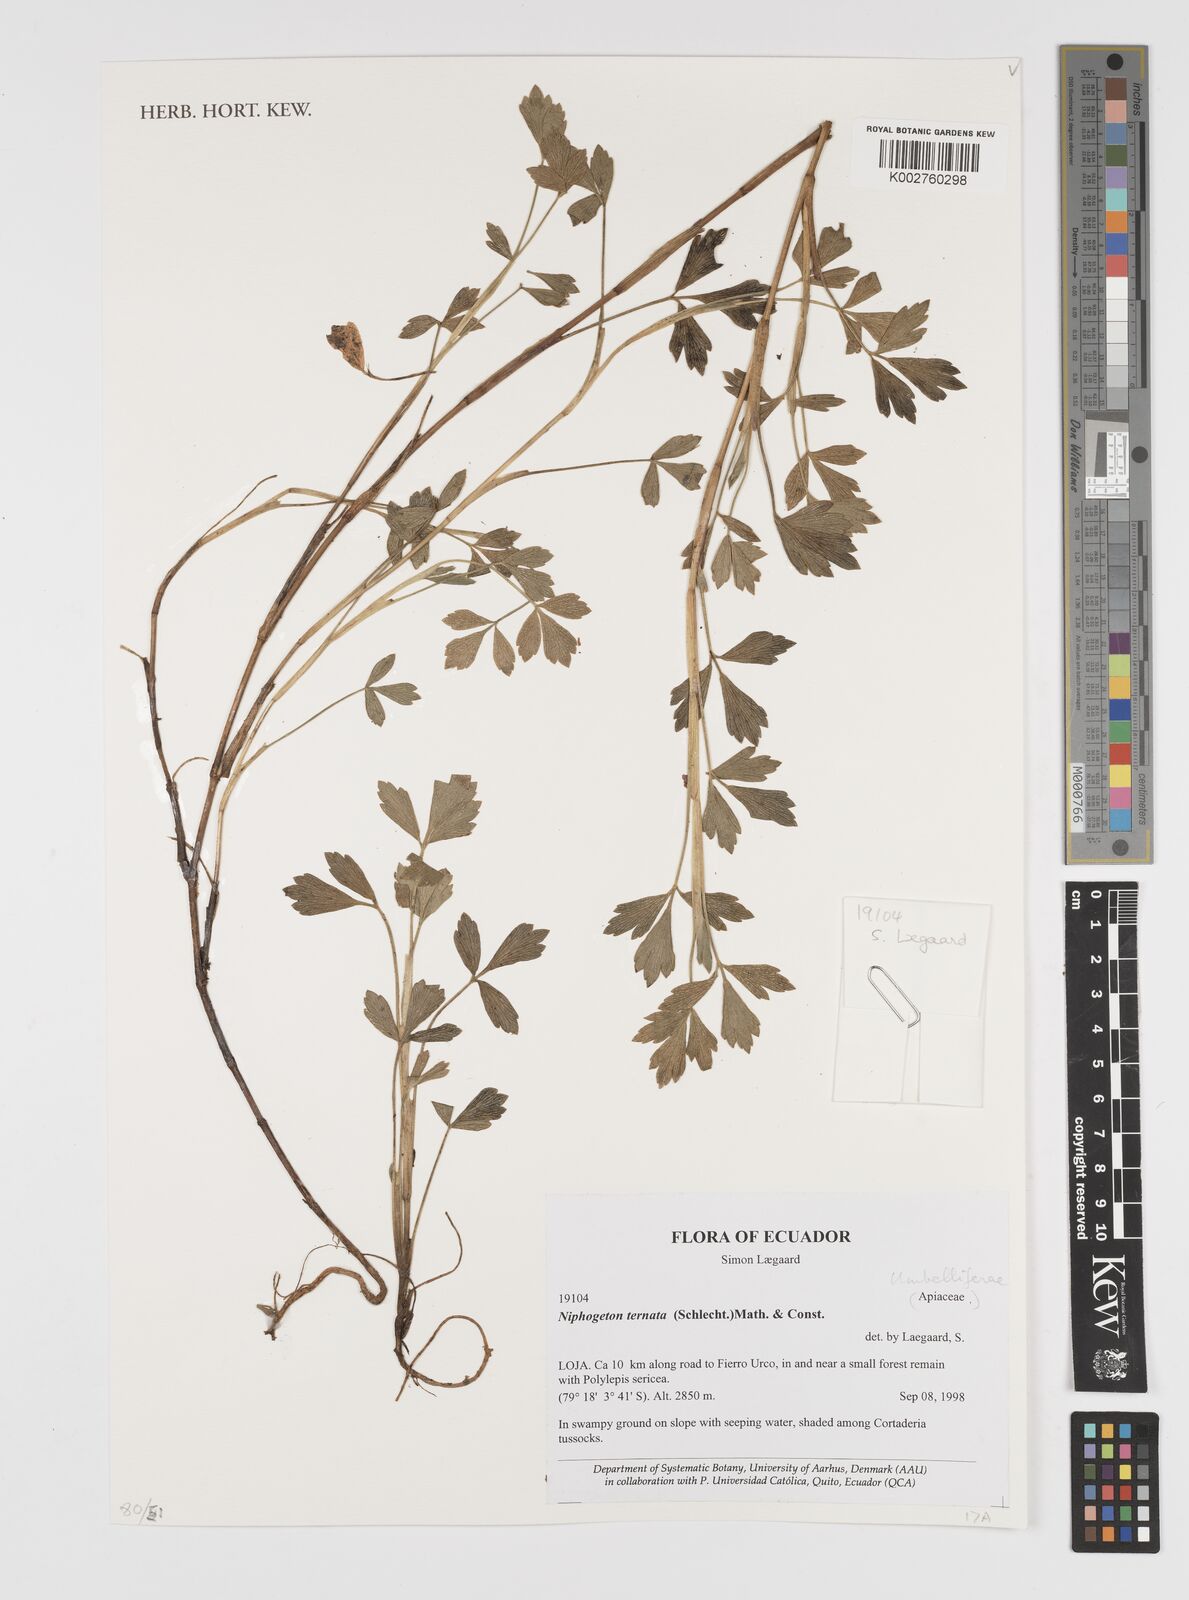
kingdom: Plantae
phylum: Tracheophyta
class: Magnoliopsida
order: Apiales
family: Apiaceae
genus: Niphogeton
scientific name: Niphogeton ternata
